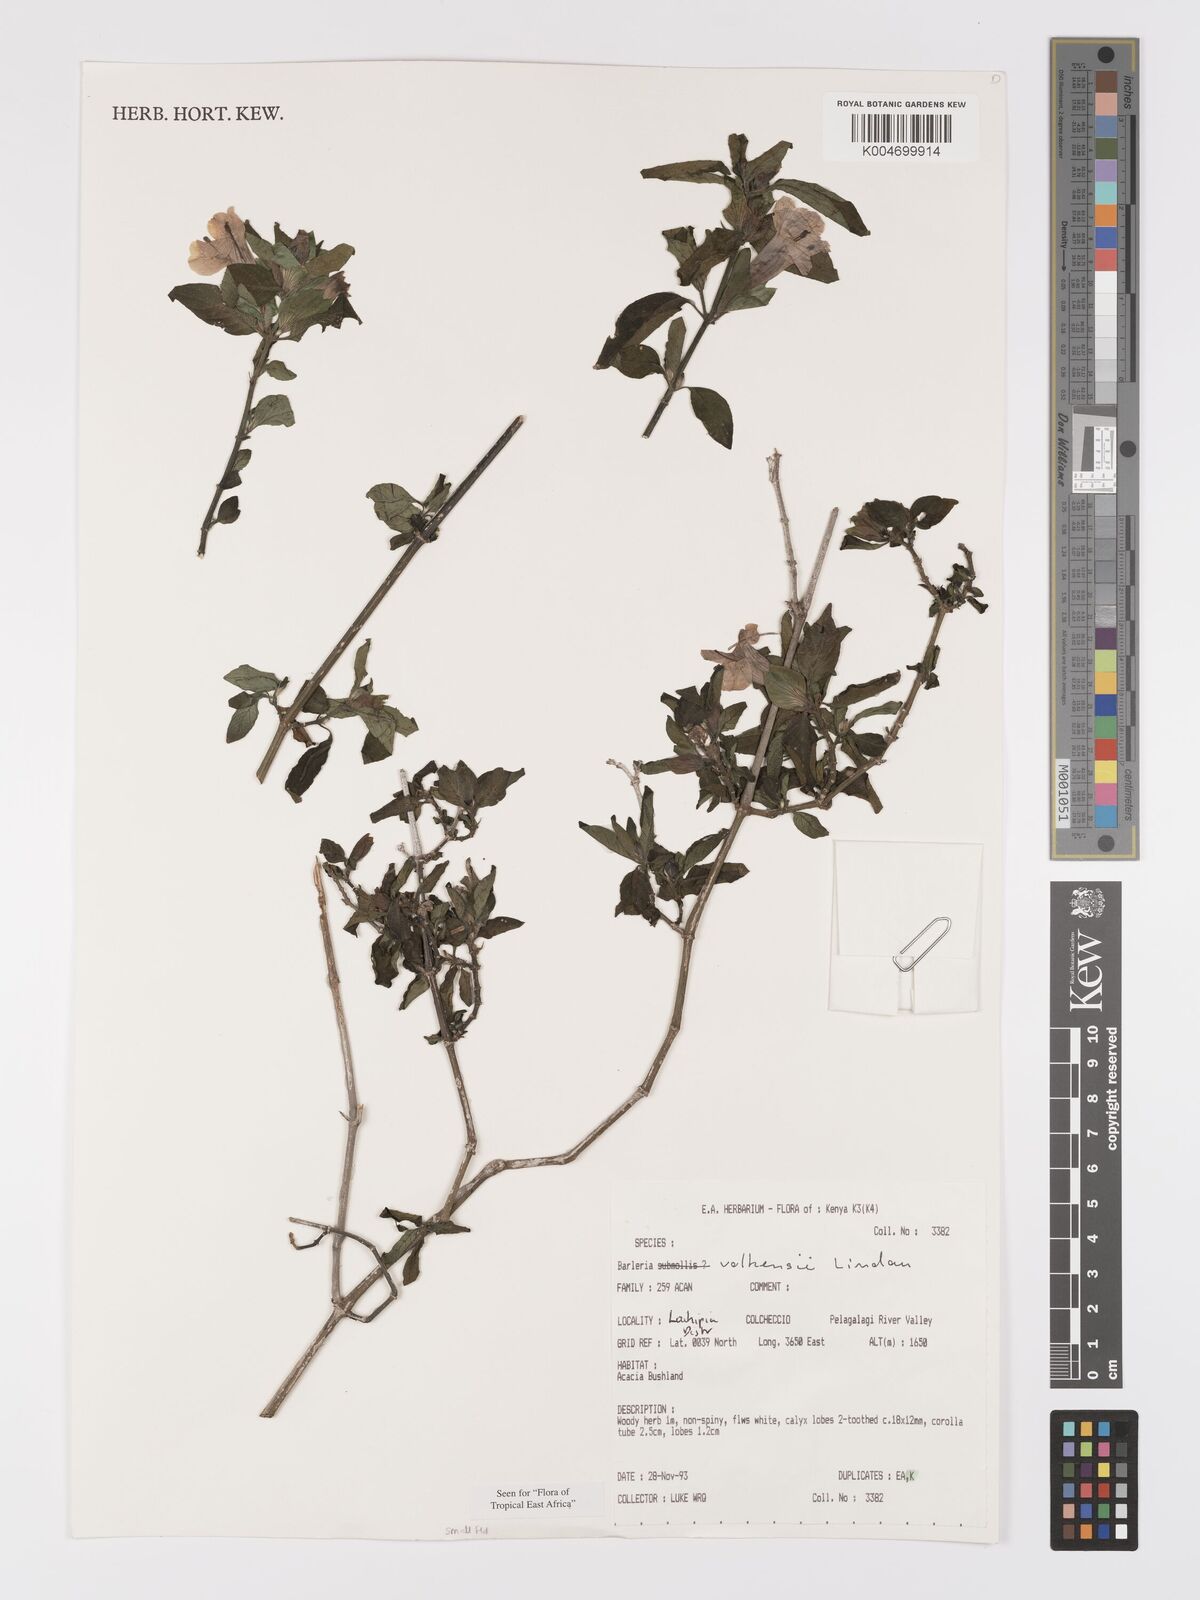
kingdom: Plantae
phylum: Tracheophyta
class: Magnoliopsida
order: Lamiales
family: Acanthaceae
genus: Barleria
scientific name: Barleria volkensii
